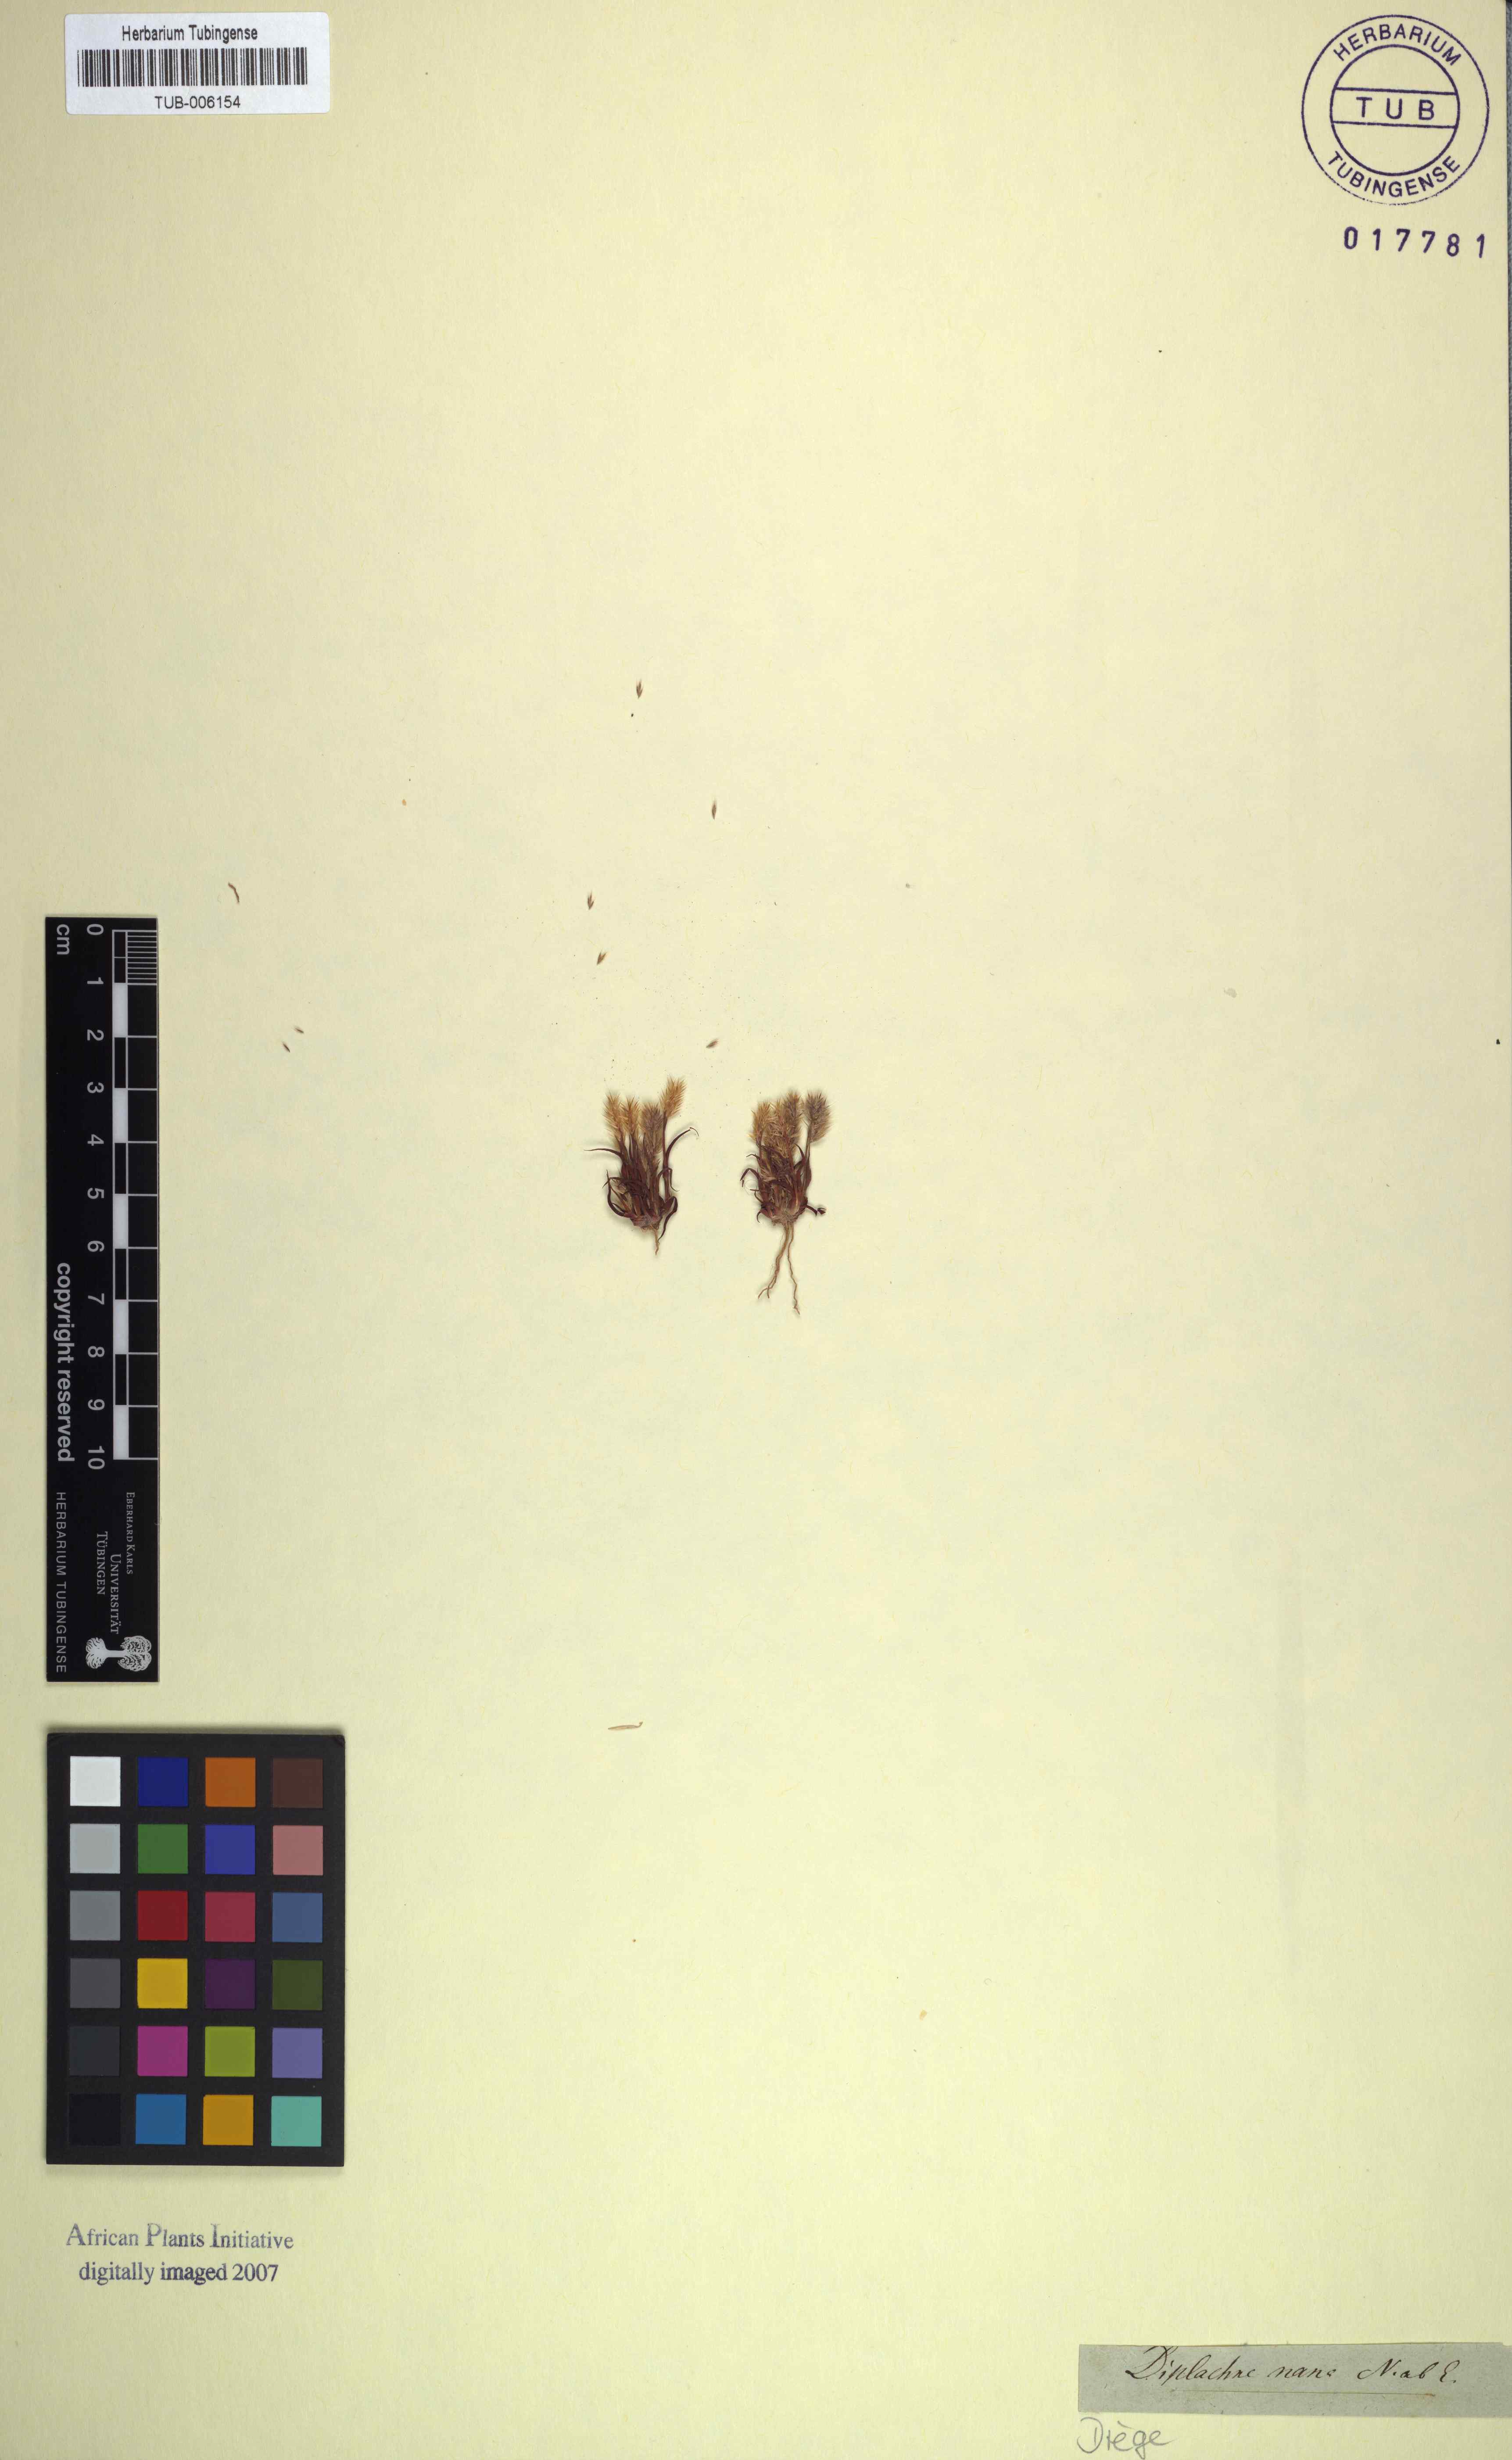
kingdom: Plantae
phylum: Tracheophyta
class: Liliopsida
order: Poales
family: Poaceae
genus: Triraphis
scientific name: Triraphis pumilio
